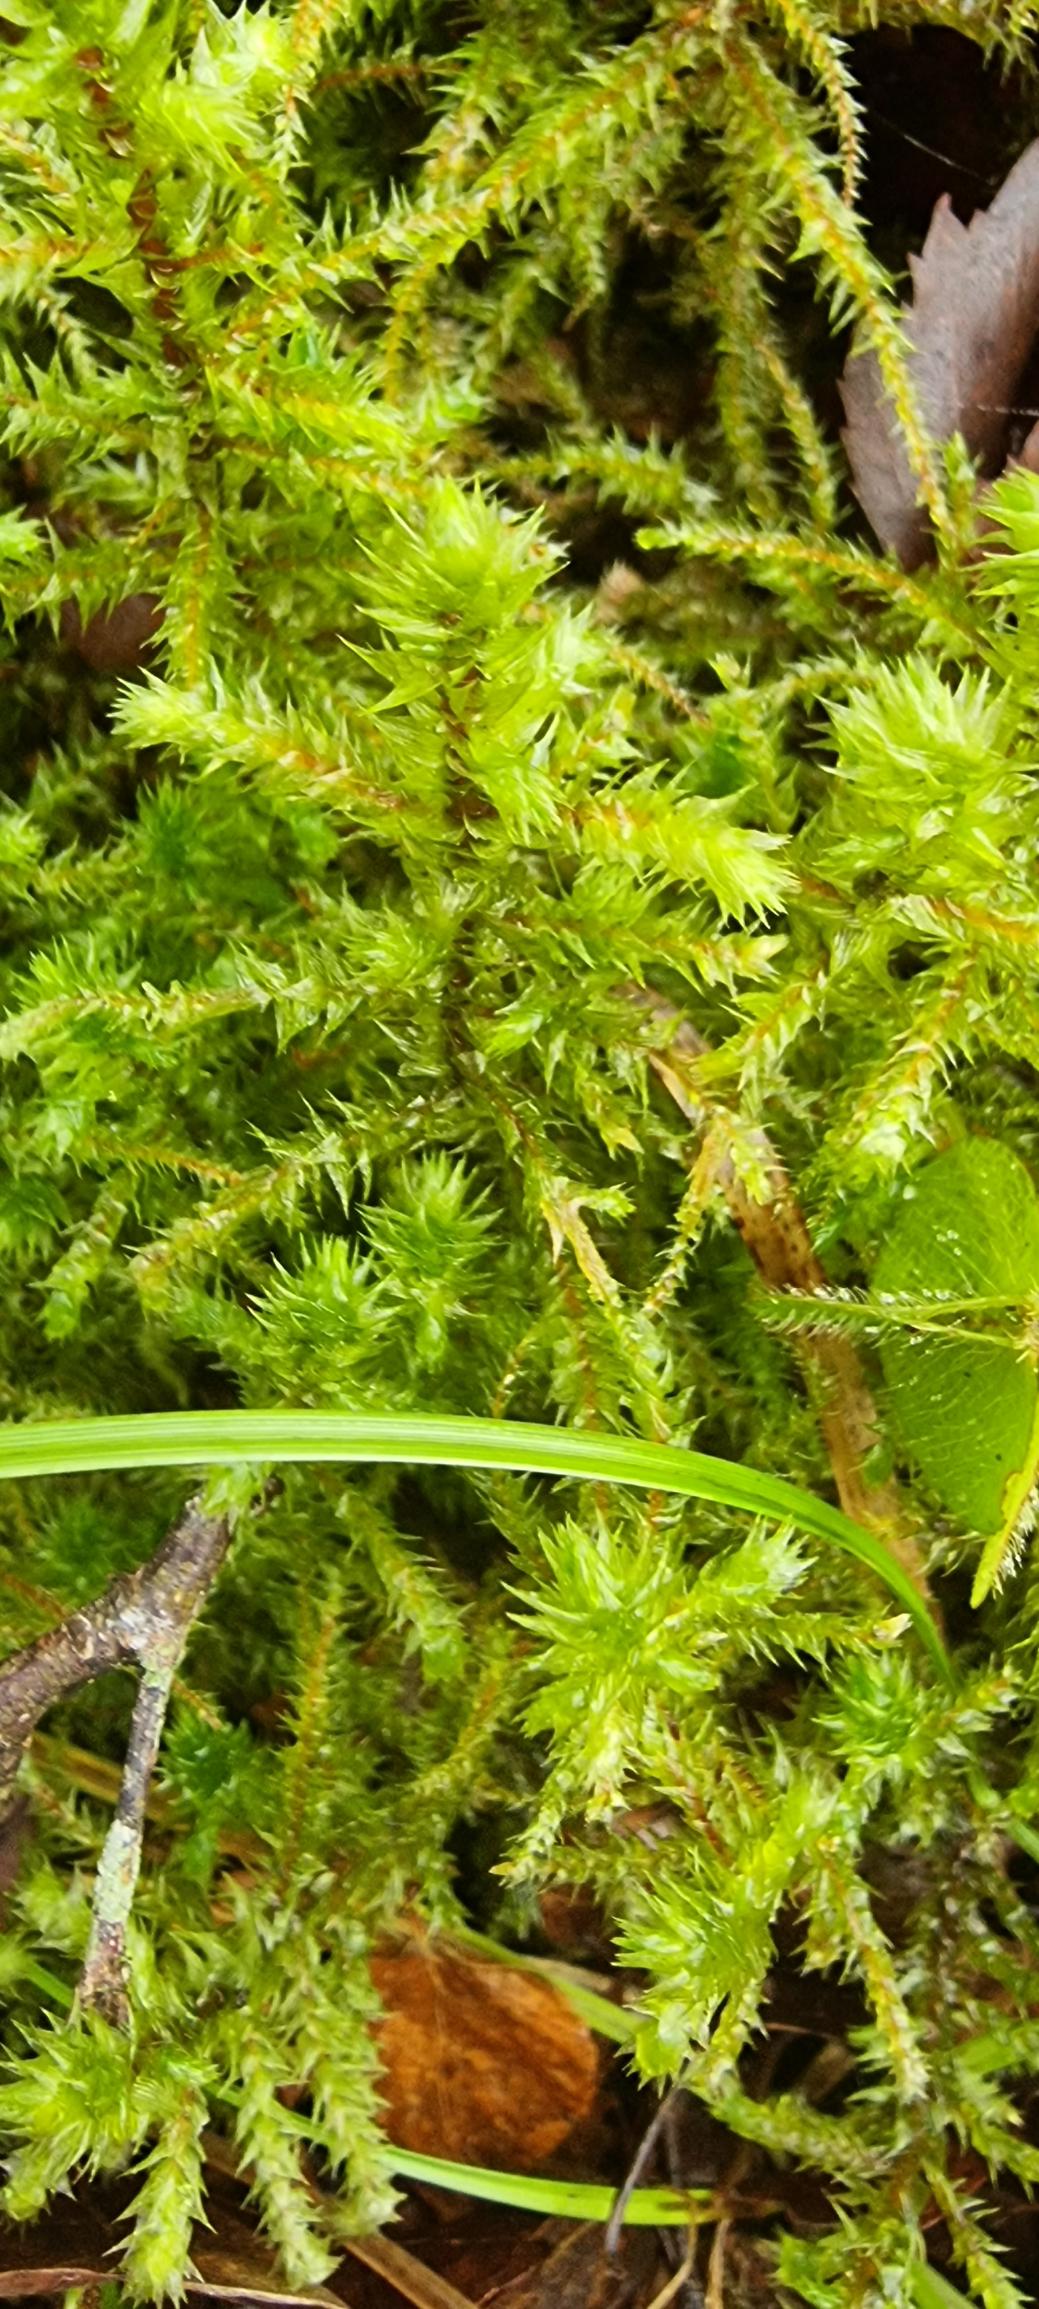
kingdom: Plantae
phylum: Bryophyta
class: Bryopsida
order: Hypnales
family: Hylocomiaceae
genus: Hylocomiadelphus
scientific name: Hylocomiadelphus triquetrus
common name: Stor kransemos
